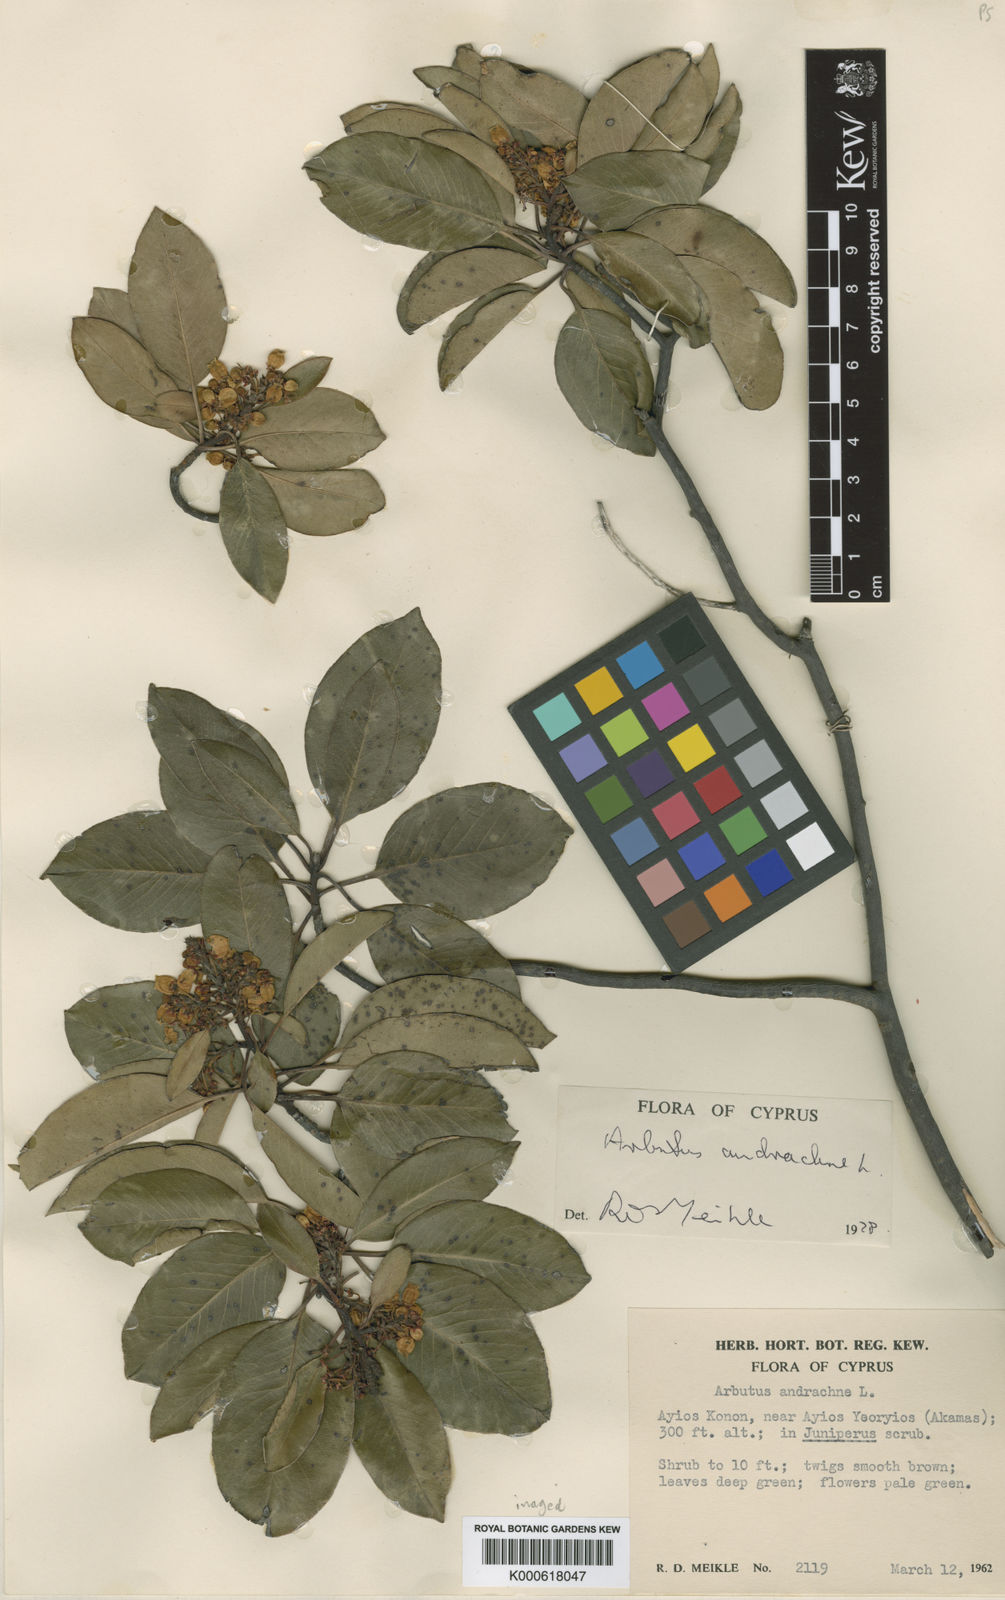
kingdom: Plantae
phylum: Tracheophyta
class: Magnoliopsida
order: Ericales
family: Ericaceae
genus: Arbutus
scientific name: Arbutus andrachne
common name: Greek strawberry tree
